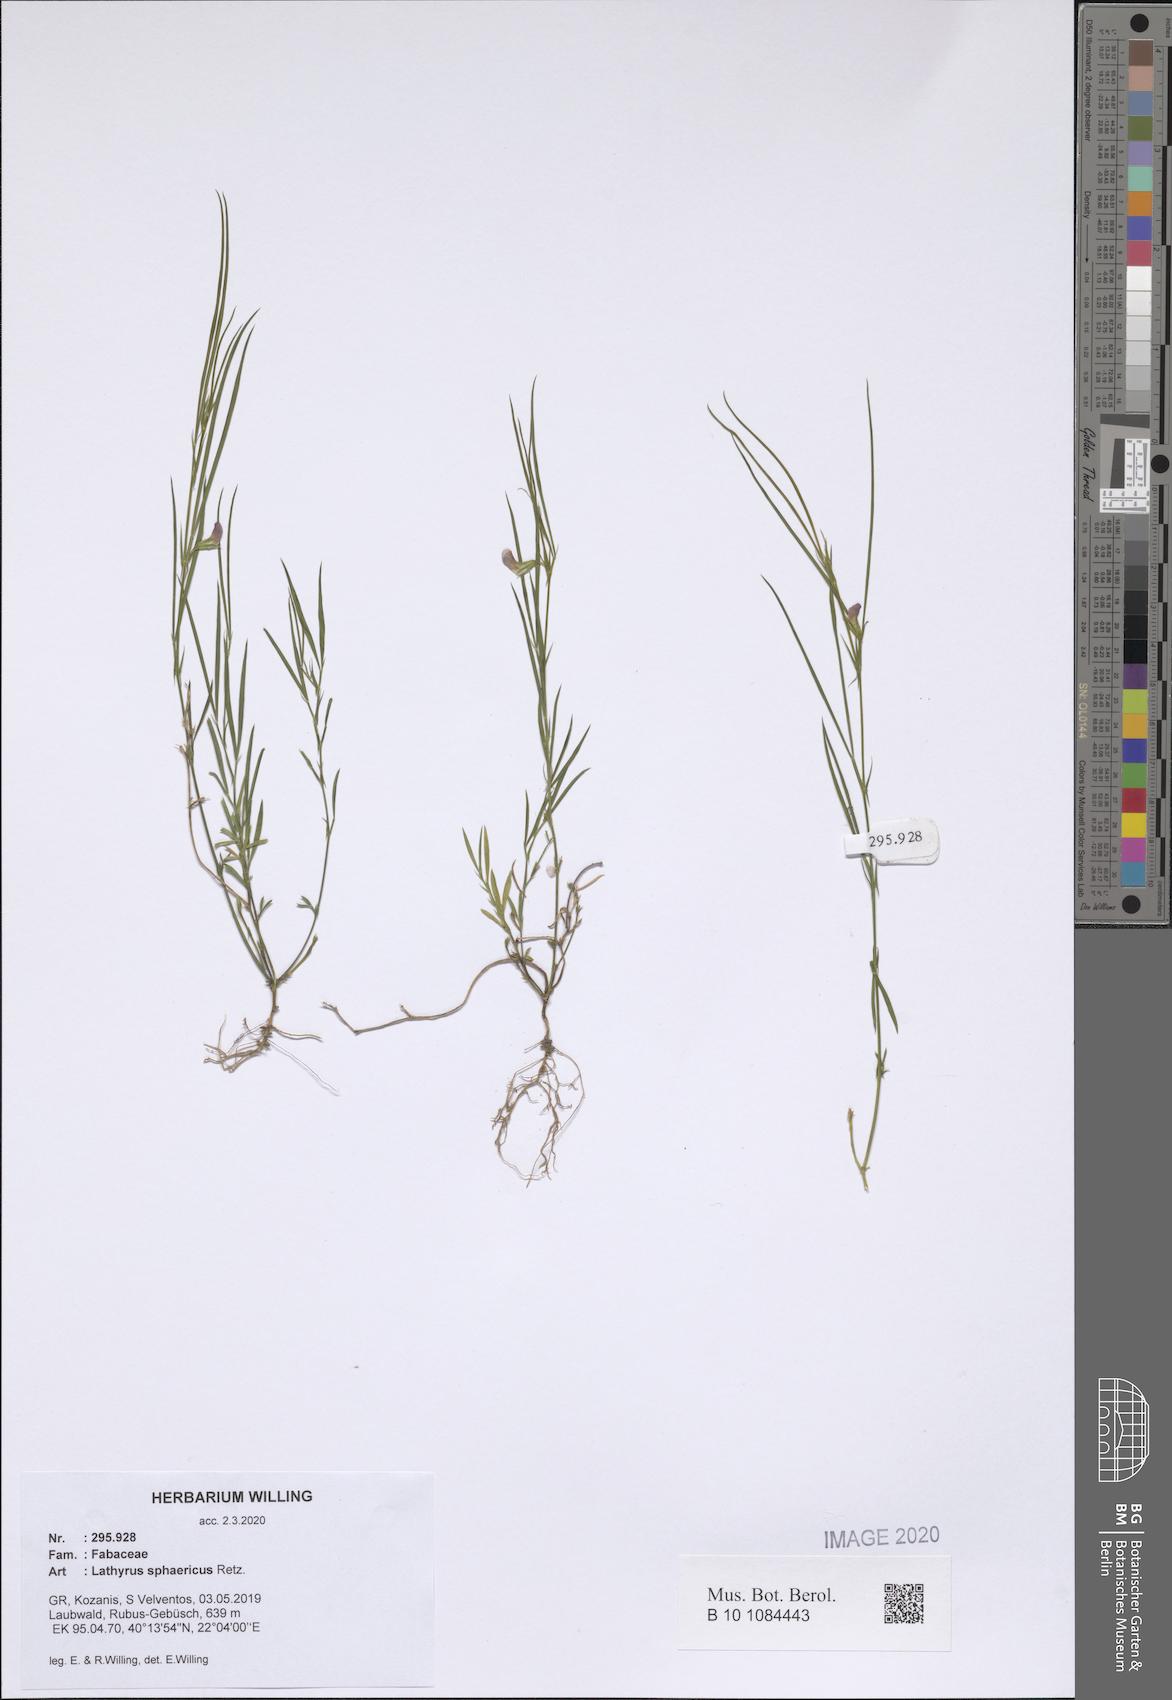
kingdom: Plantae
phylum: Tracheophyta
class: Magnoliopsida
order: Fabales
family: Fabaceae
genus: Lathyrus
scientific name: Lathyrus sphaericus
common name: Grass pea
